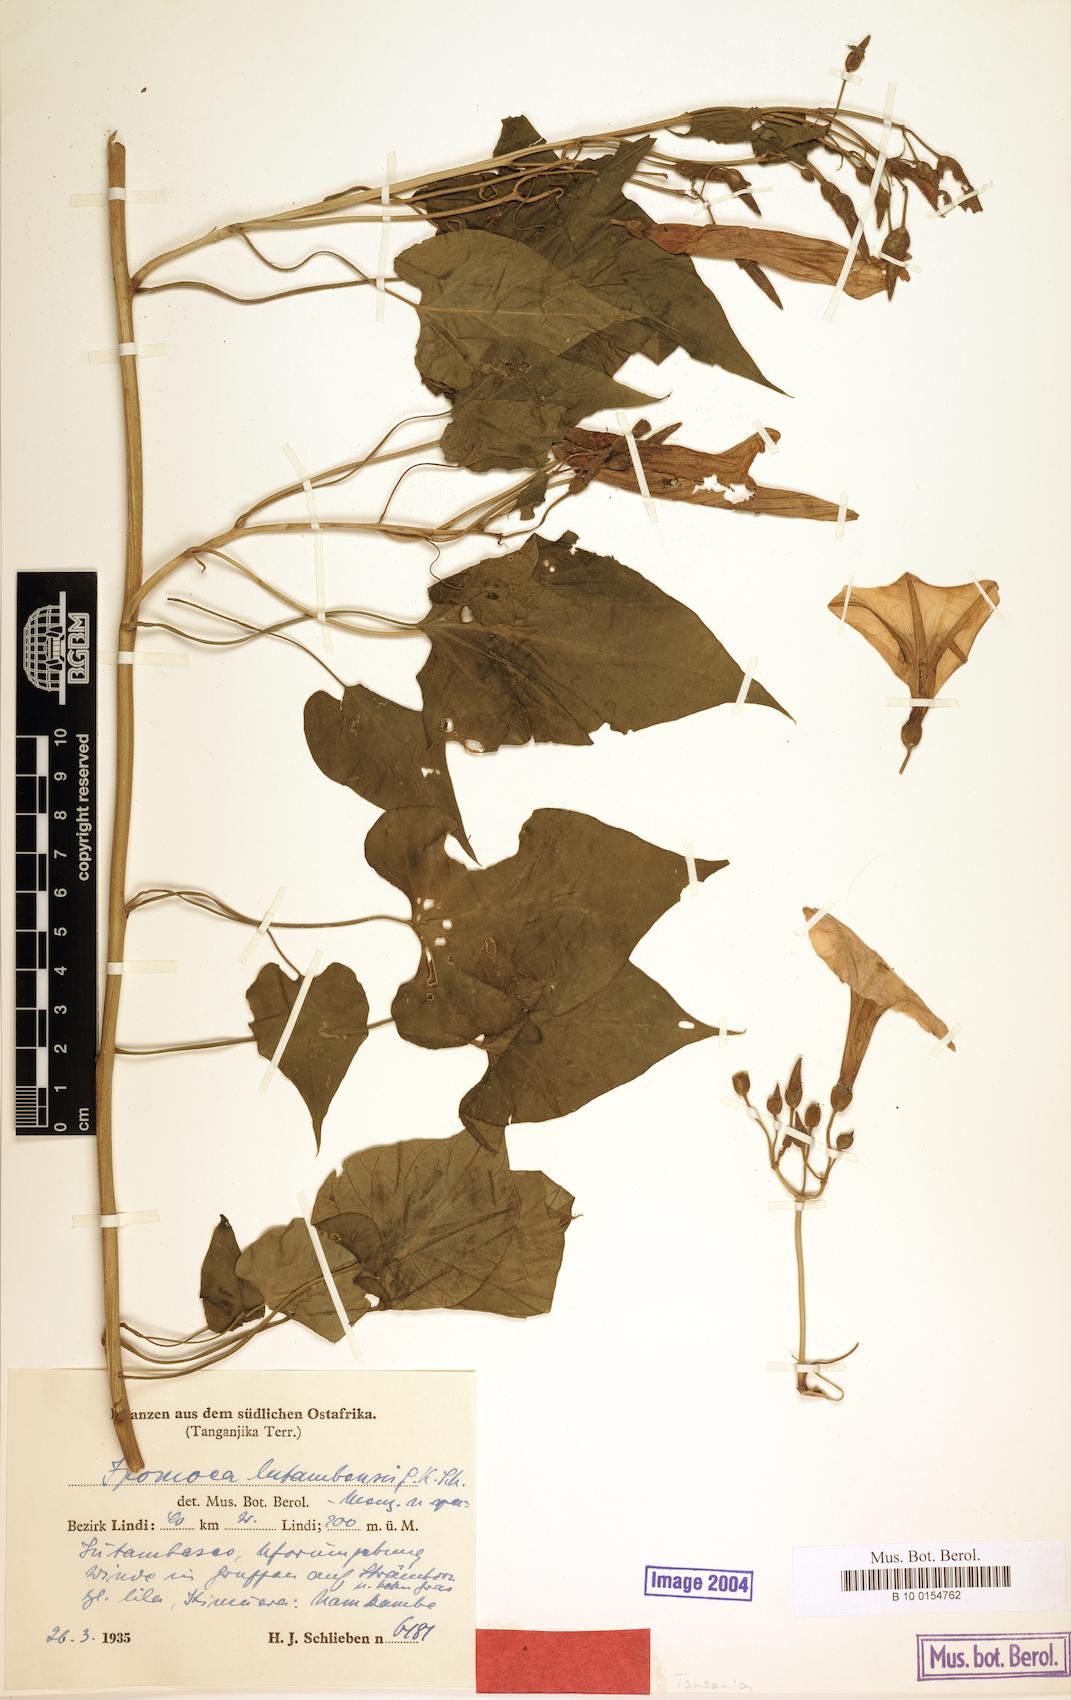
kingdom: Plantae
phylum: Tracheophyta
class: Magnoliopsida
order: Solanales
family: Convolvulaceae
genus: Stictocardia
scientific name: Stictocardia lutambensis
